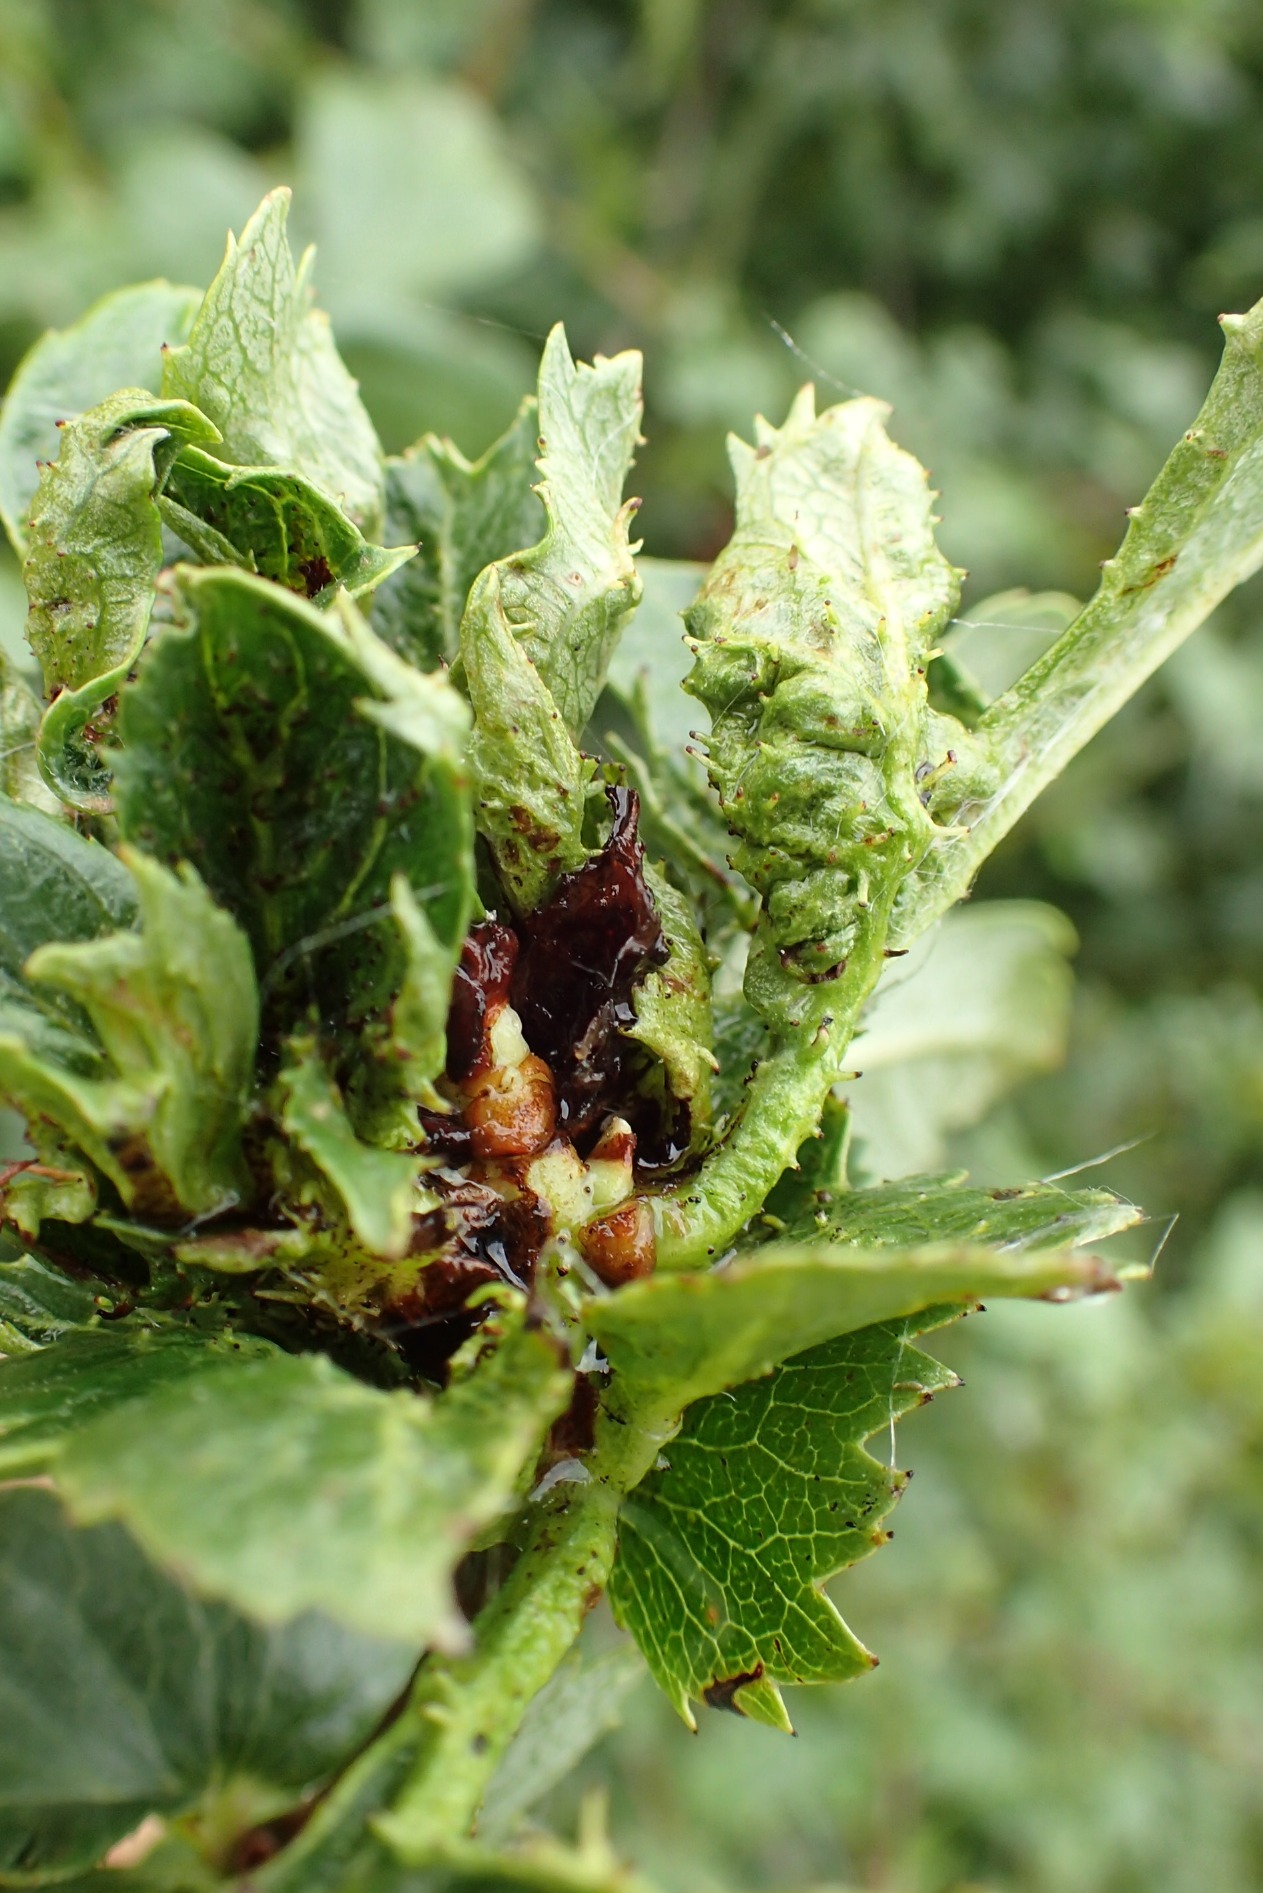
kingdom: Animalia
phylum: Arthropoda
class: Insecta
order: Diptera
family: Cecidomyiidae
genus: Dasineura
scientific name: Dasineura crataegi
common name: Tjørnerosetgalmyg
